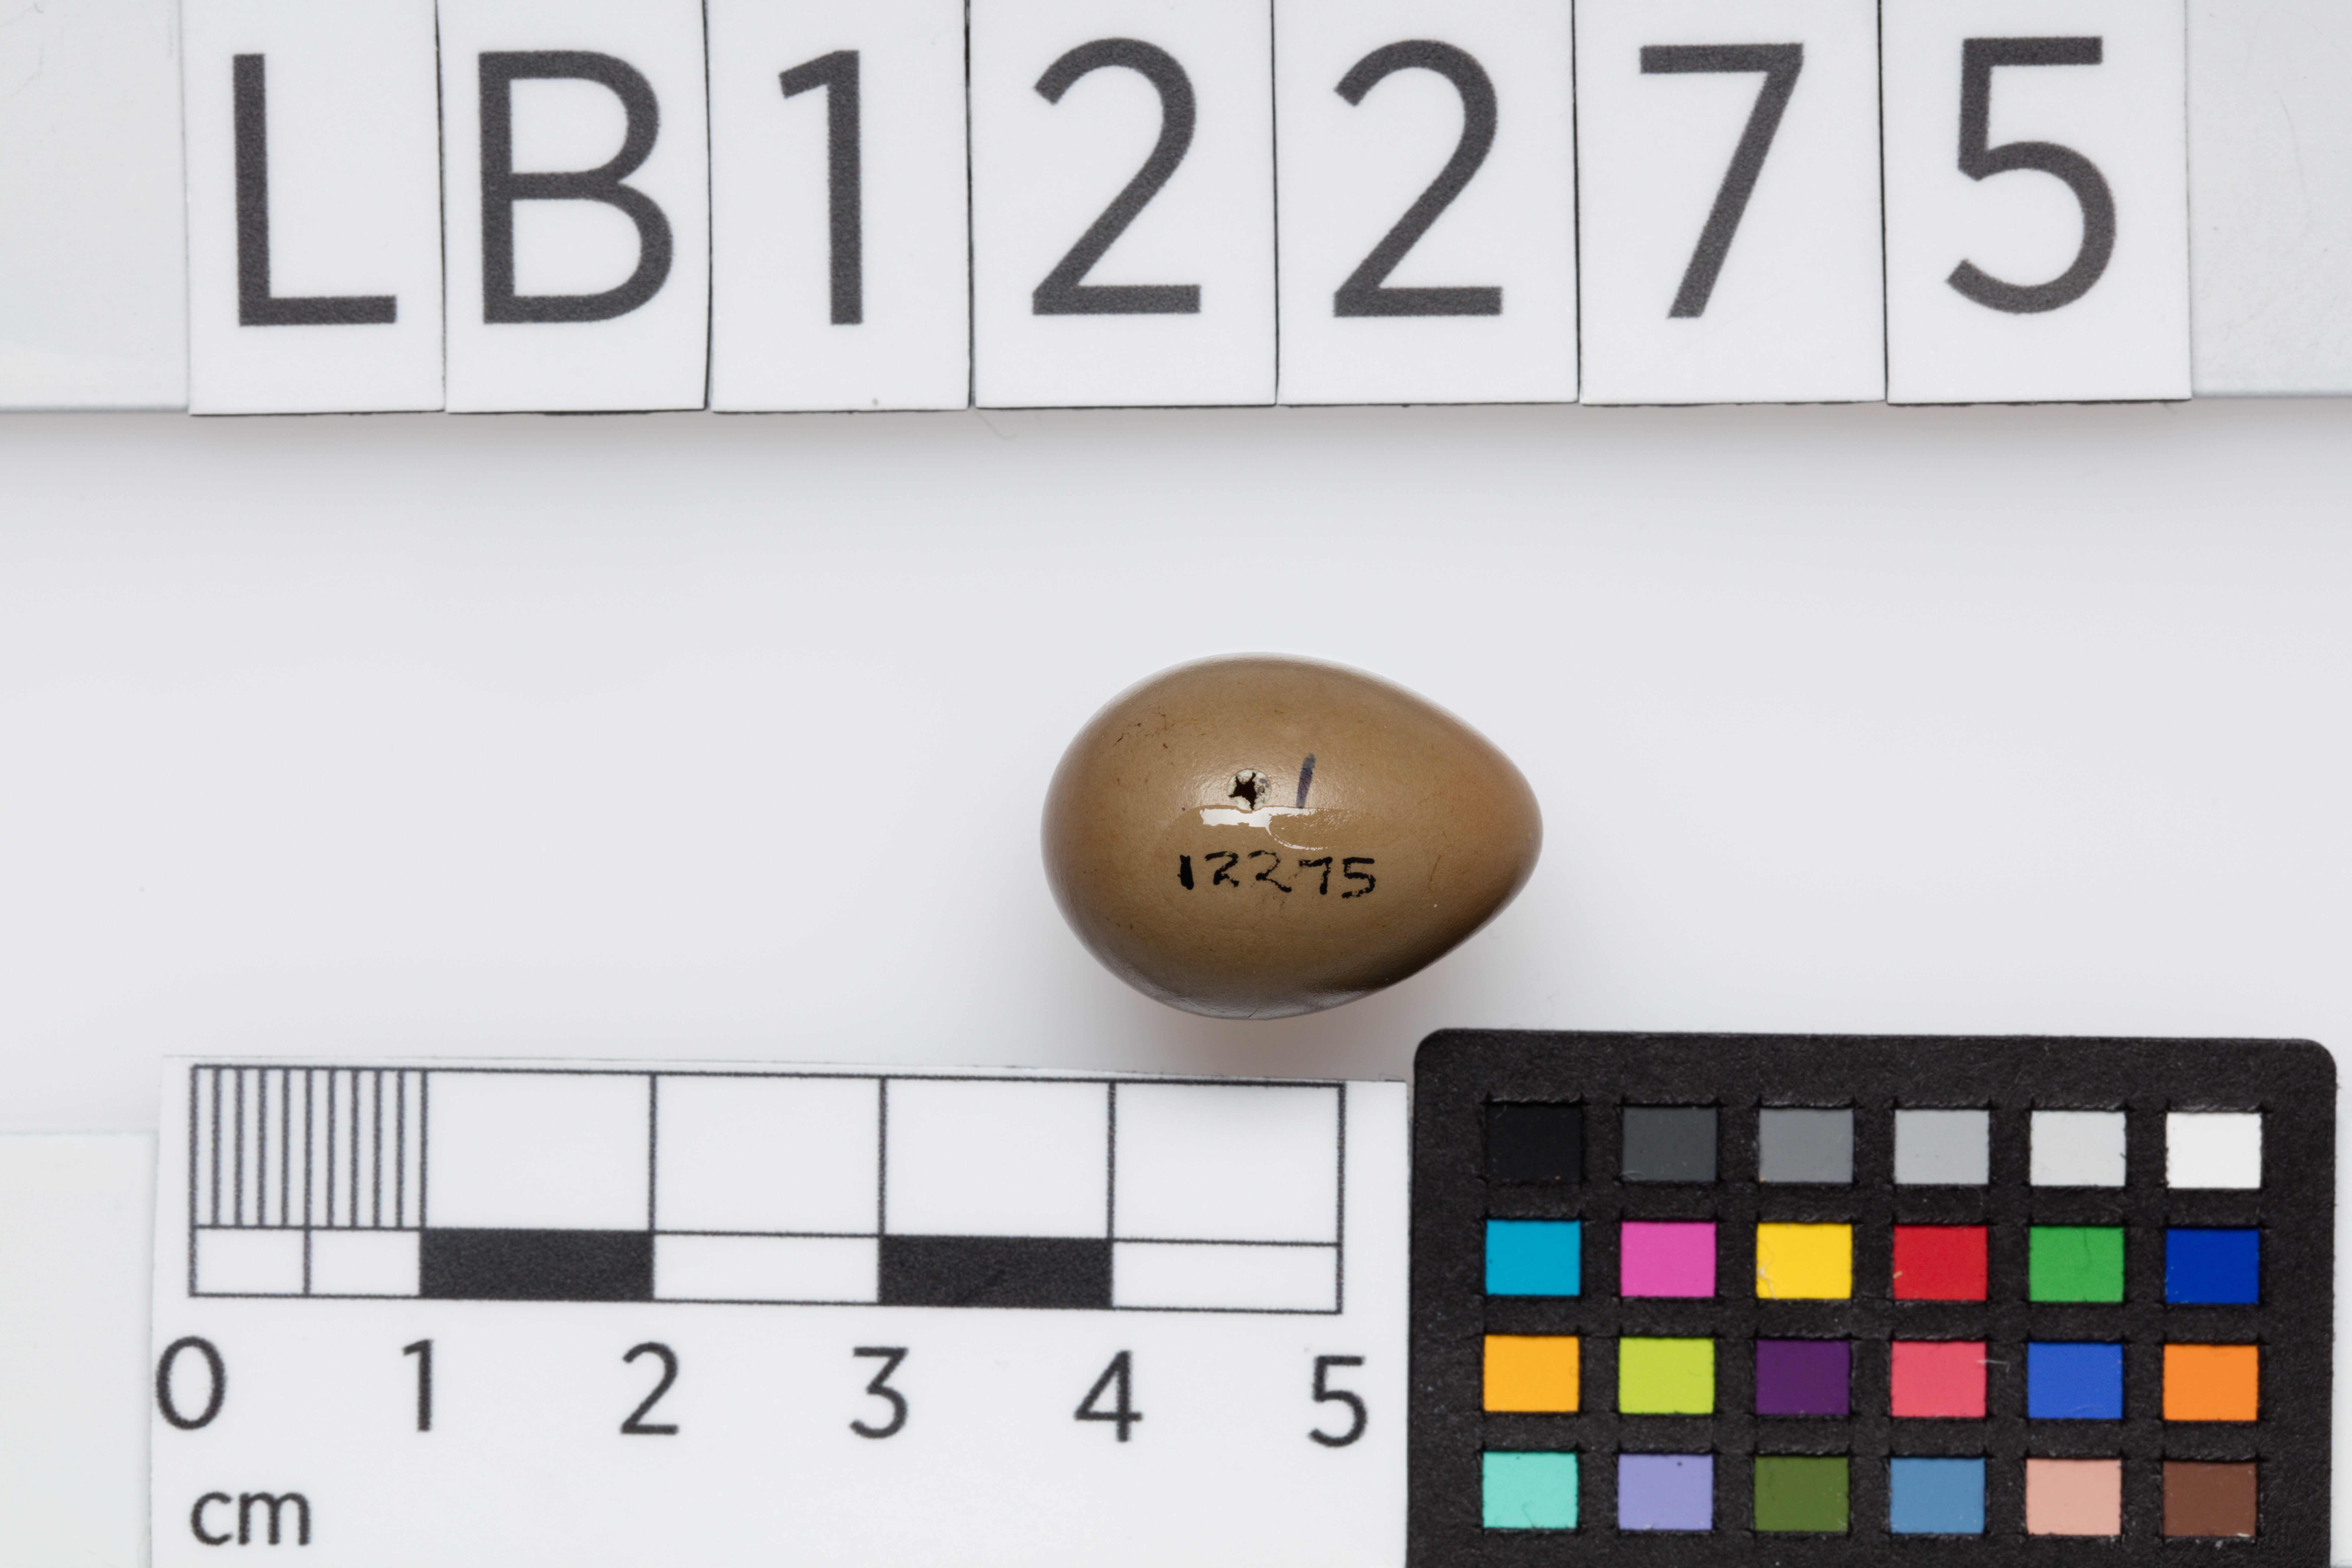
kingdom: Animalia
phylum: Chordata
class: Aves
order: Passeriformes
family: Muscicapidae
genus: Luscinia
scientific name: Luscinia megarhynchos
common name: Common nightingale
